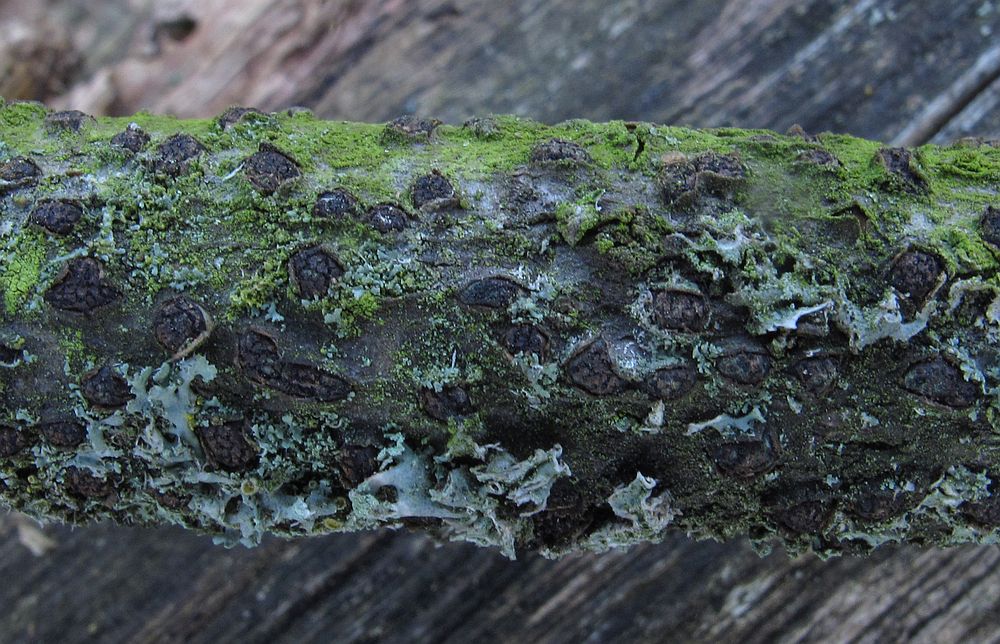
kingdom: Fungi
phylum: Ascomycota
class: Sordariomycetes
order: Xylariales
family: Diatrypaceae
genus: Diatrypella
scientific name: Diatrypella quercina
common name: ege-kulskorpe
